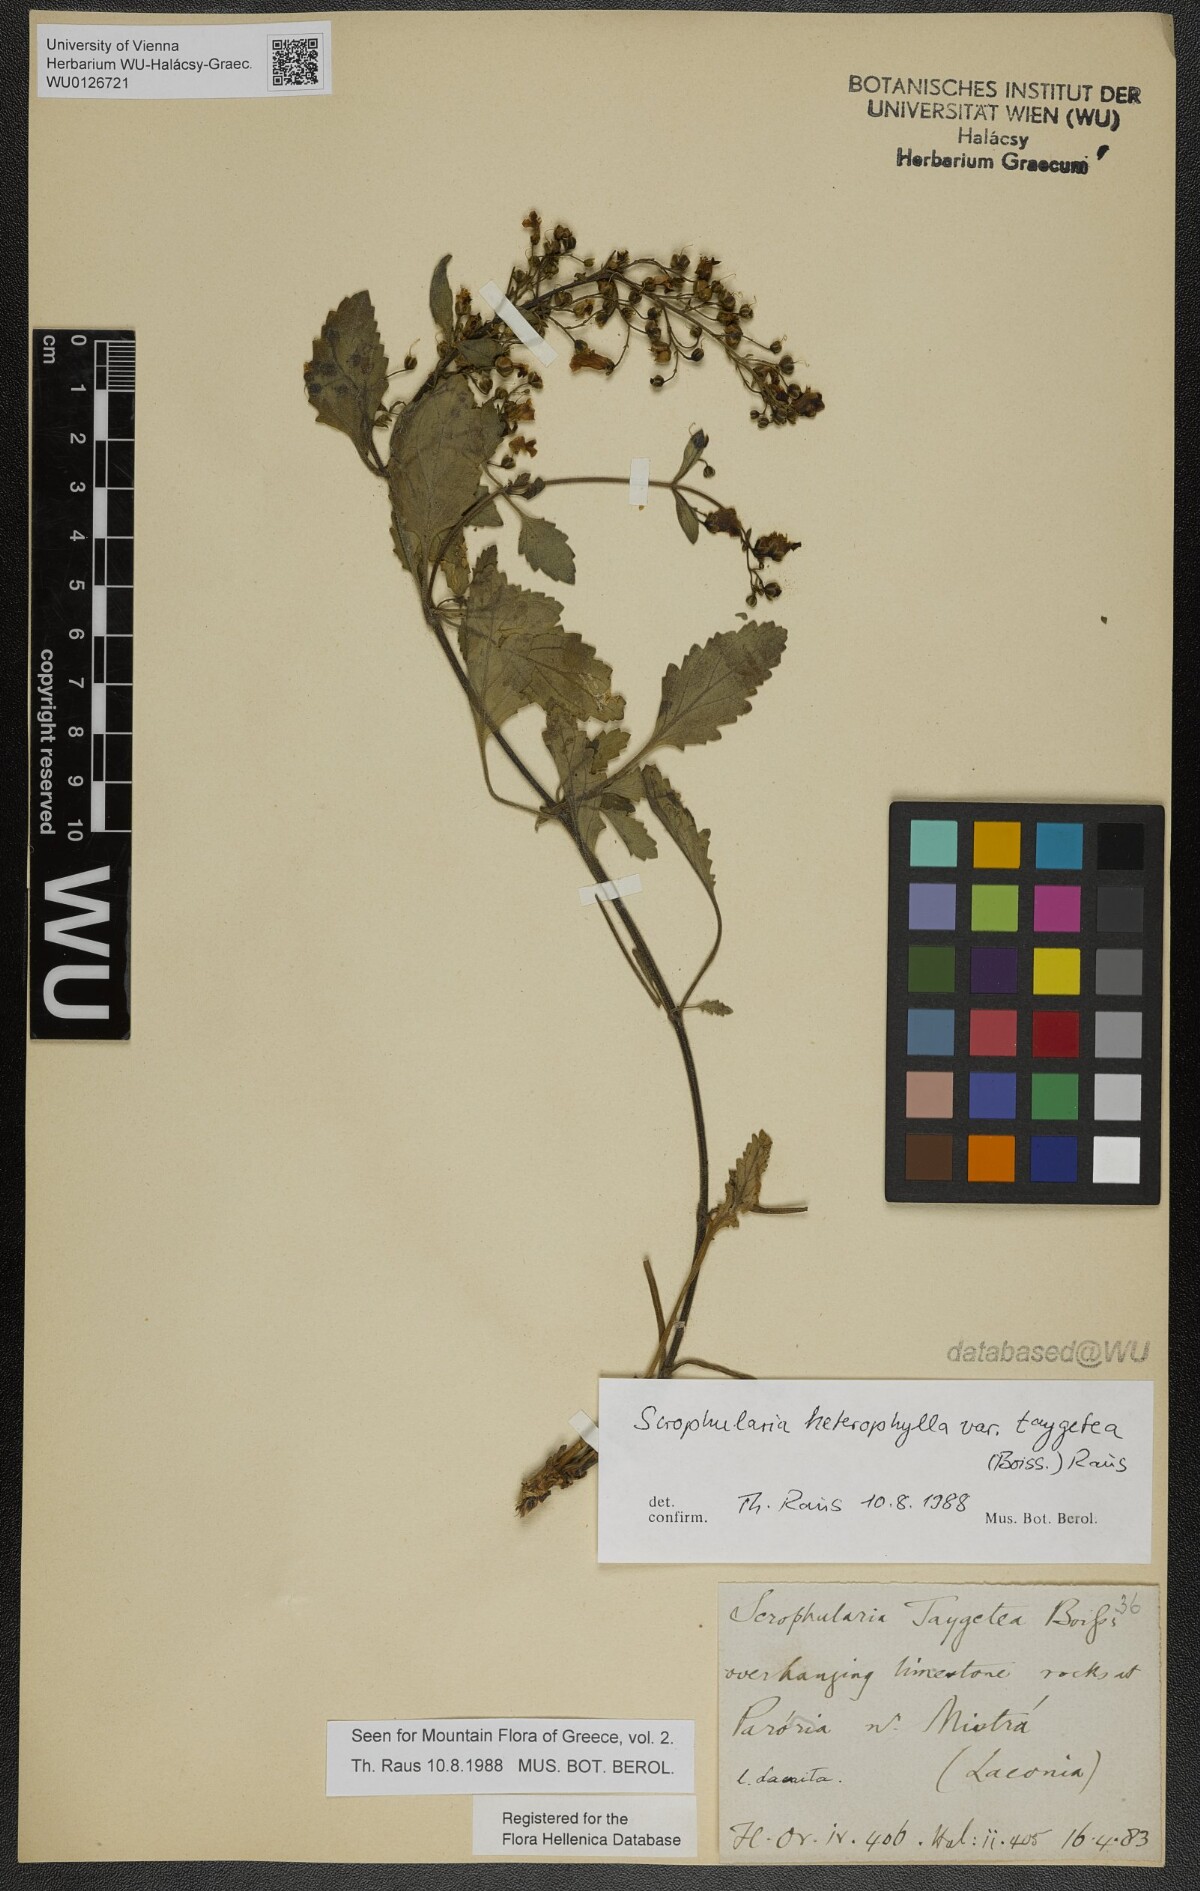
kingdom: Plantae
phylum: Tracheophyta
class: Magnoliopsida
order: Lamiales
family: Scrophulariaceae
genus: Scrophularia
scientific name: Scrophularia heterophylla
